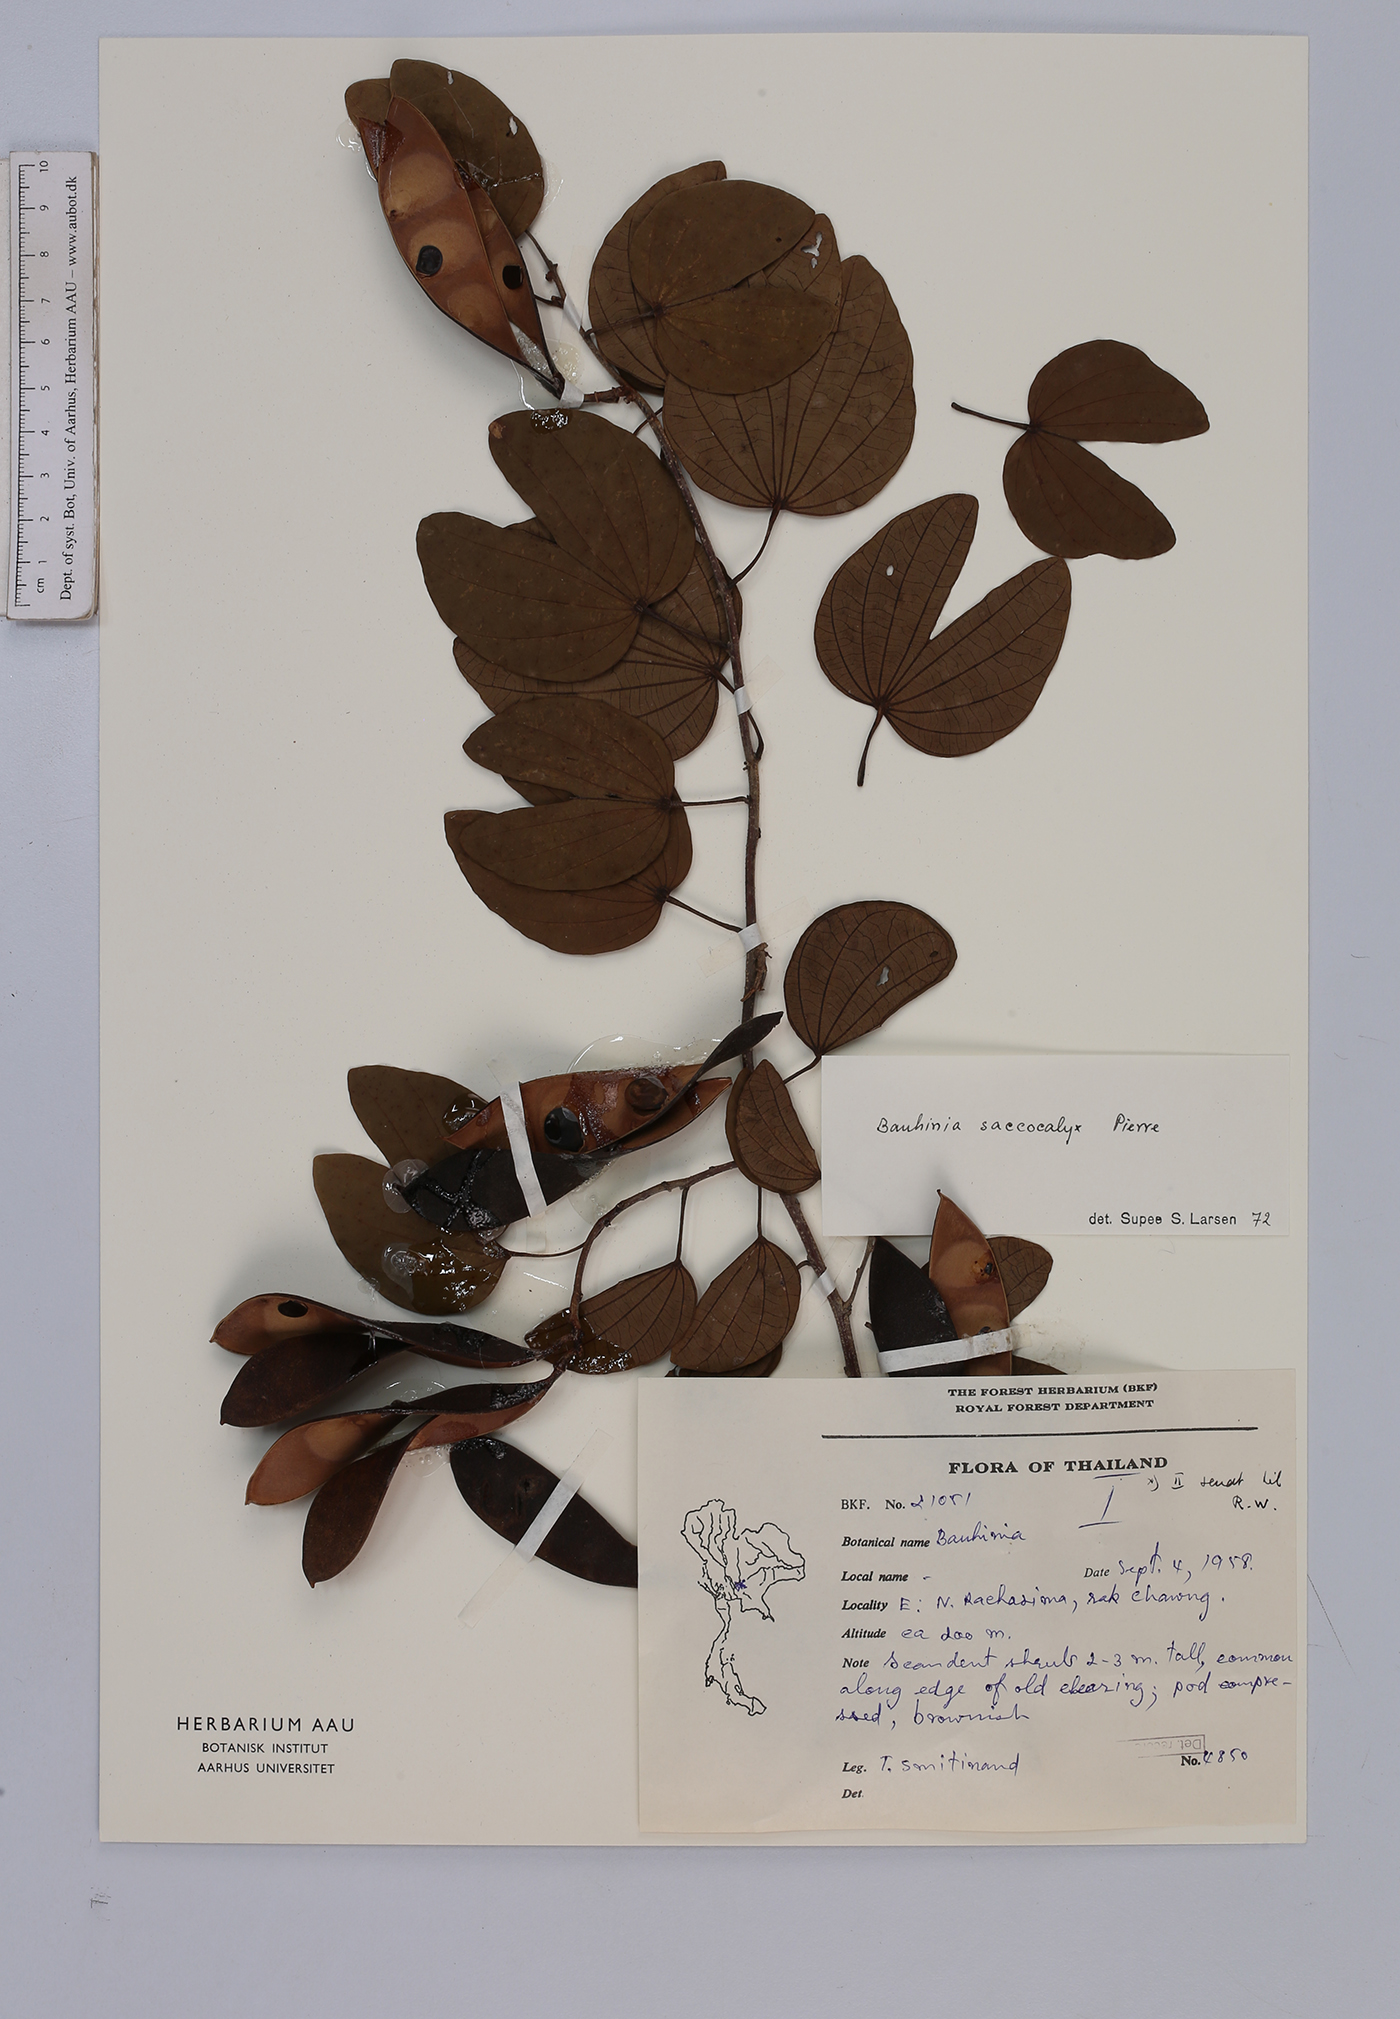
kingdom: Plantae
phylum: Tracheophyta
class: Magnoliopsida
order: Fabales
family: Fabaceae
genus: Bauhinia
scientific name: Bauhinia saccocalyx
